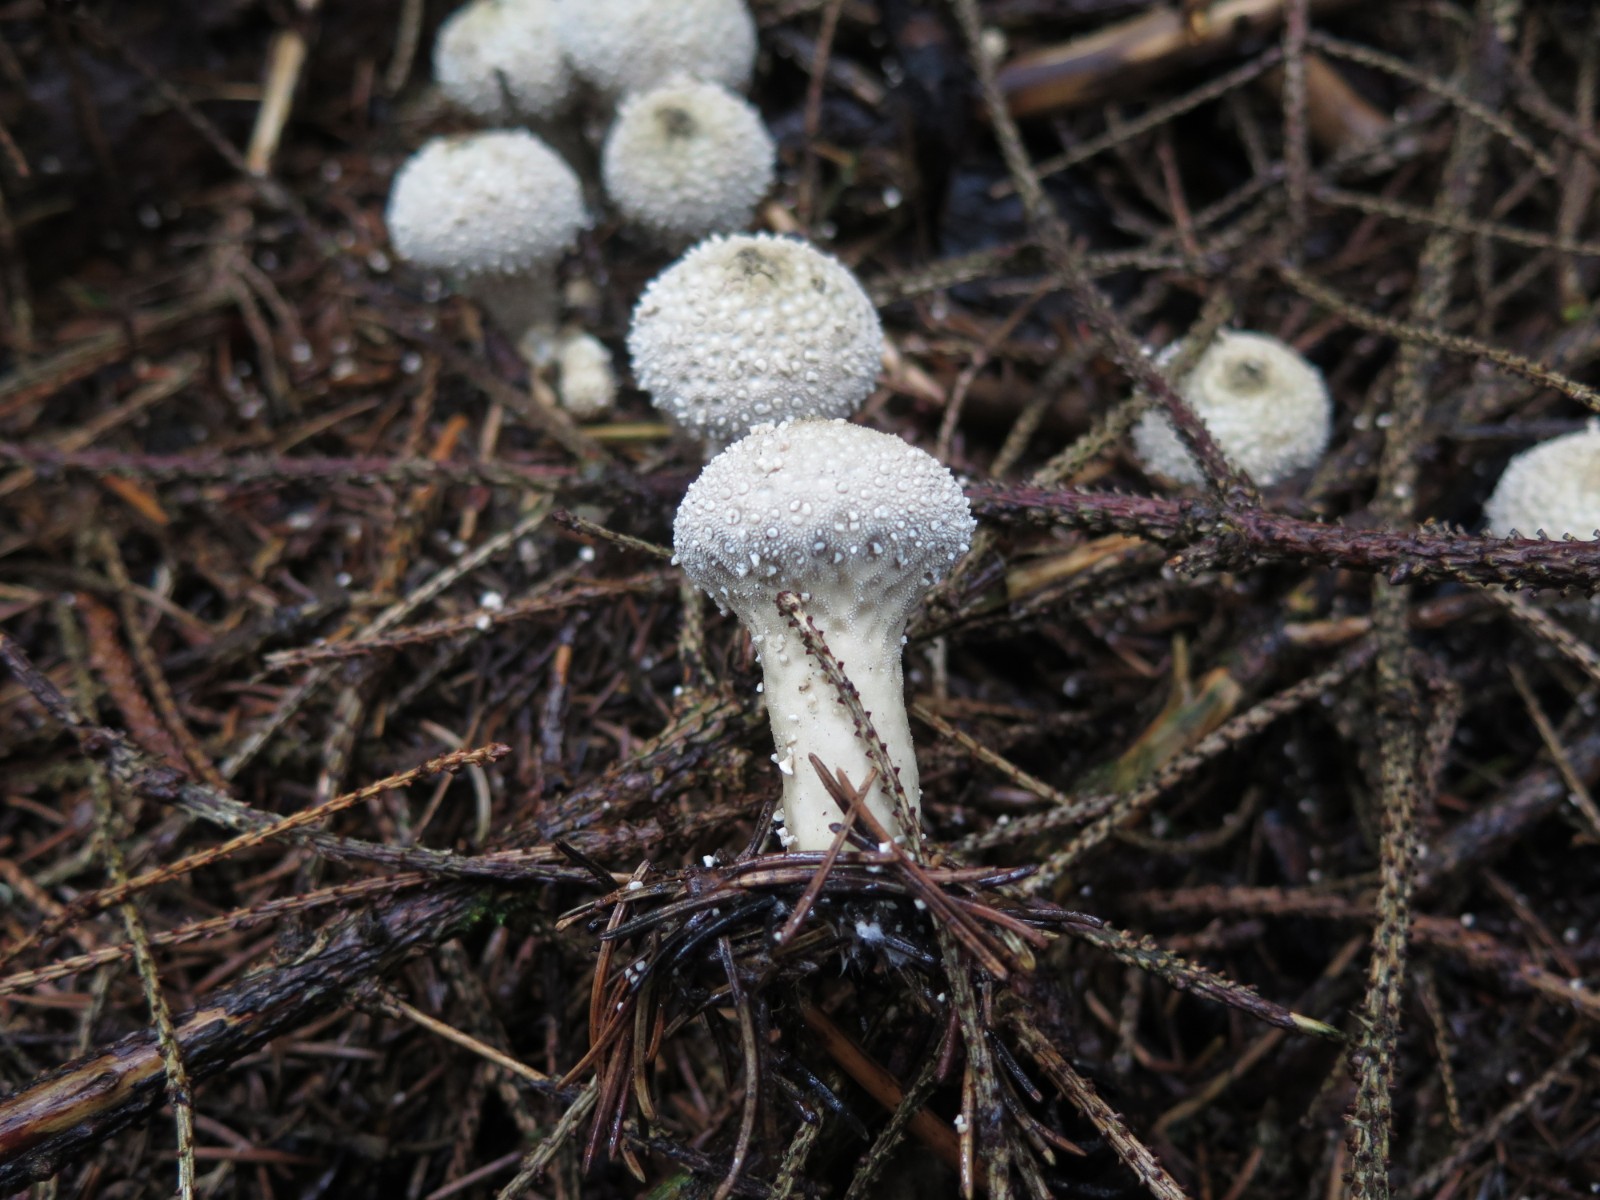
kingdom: Fungi
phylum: Basidiomycota
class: Agaricomycetes
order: Agaricales
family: Lycoperdaceae
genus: Lycoperdon
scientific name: Lycoperdon perlatum
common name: krystal-støvbold
